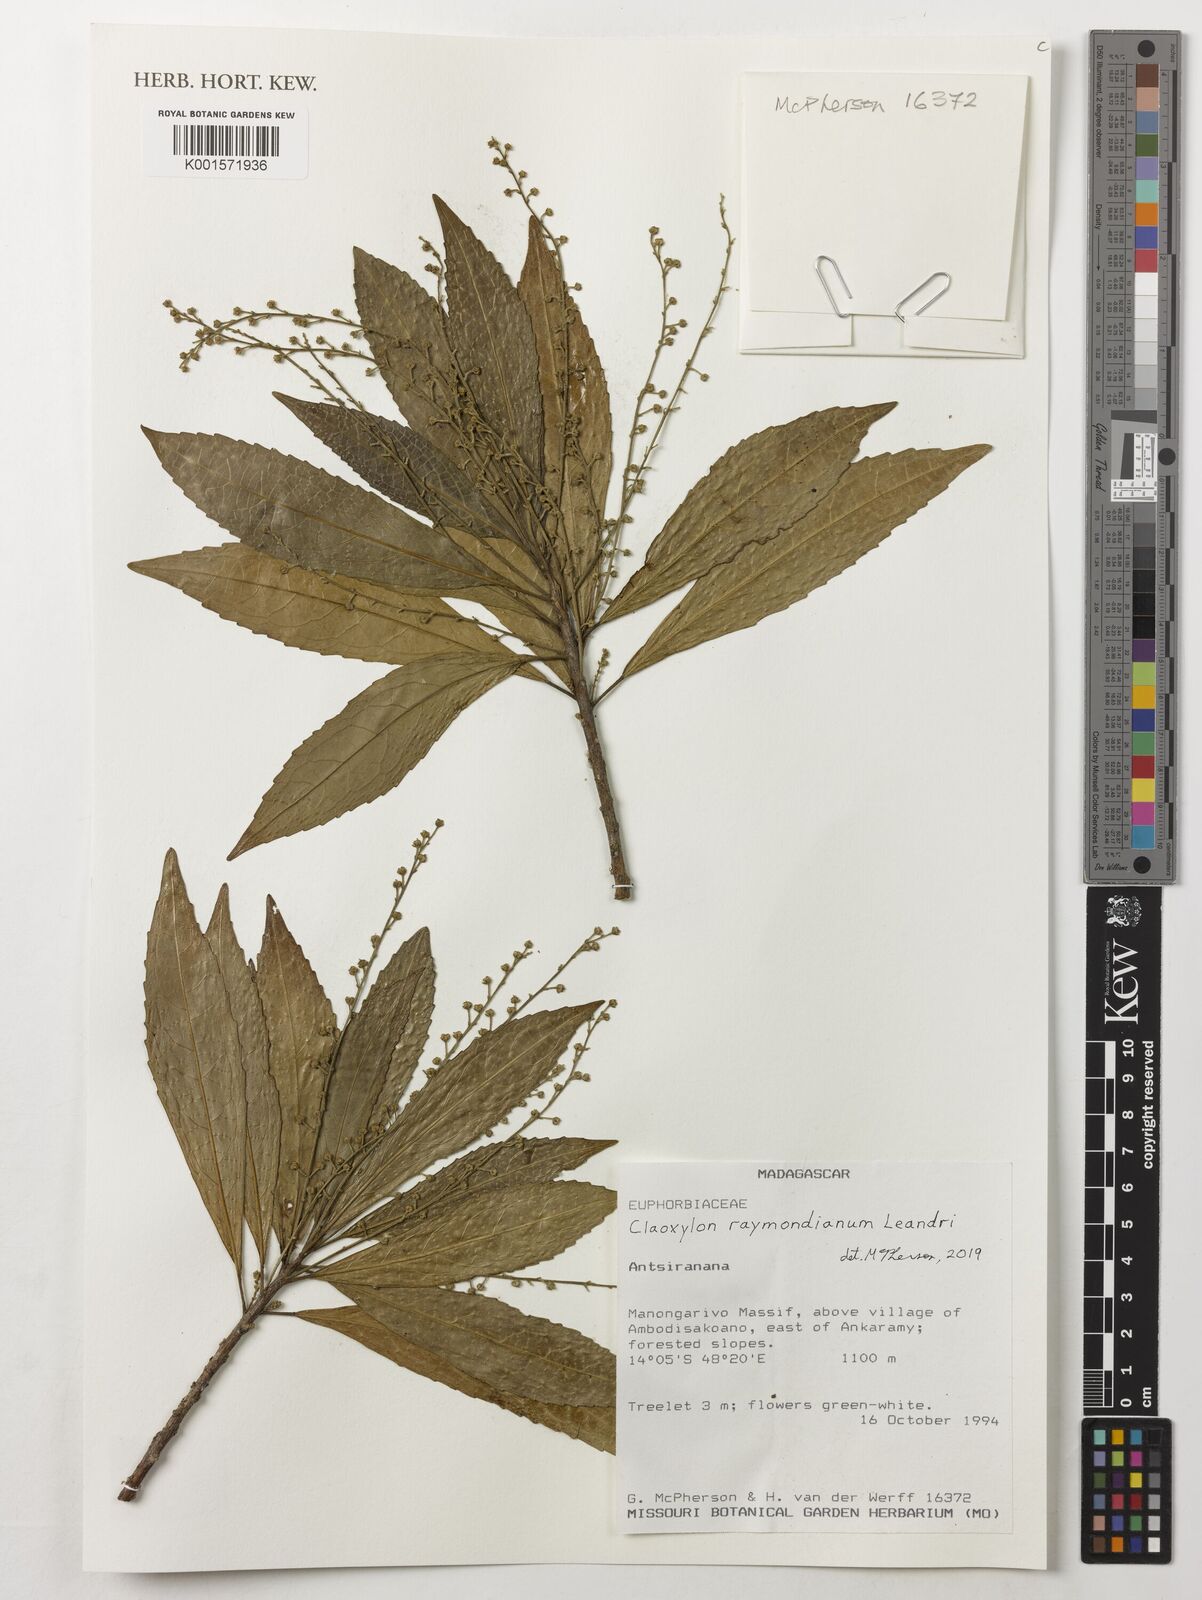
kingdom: Plantae
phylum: Tracheophyta
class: Magnoliopsida
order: Malpighiales
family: Euphorbiaceae
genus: Claoxylon
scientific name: Claoxylon raymondianum
